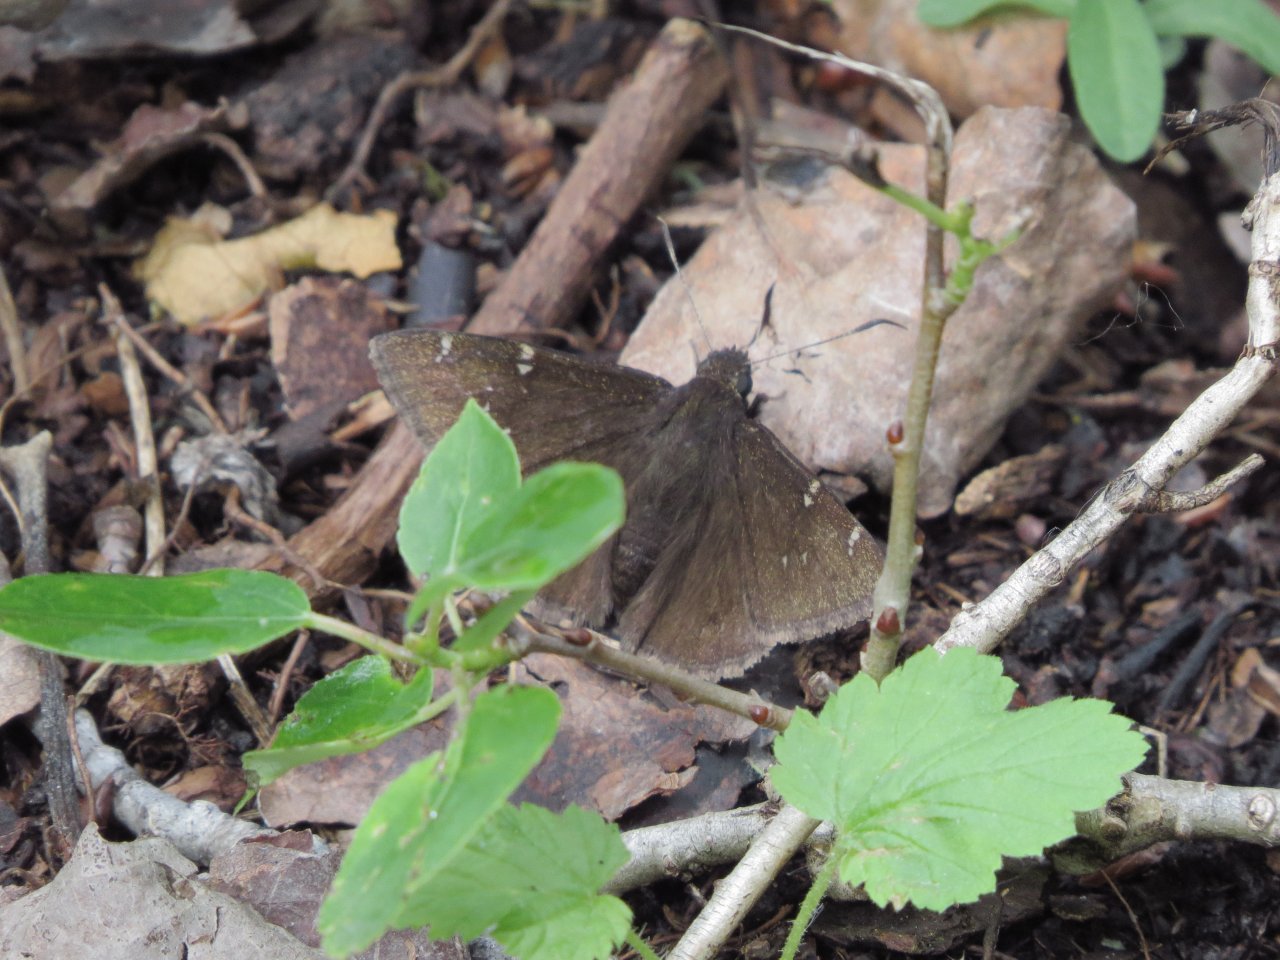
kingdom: Animalia
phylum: Arthropoda
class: Insecta
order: Lepidoptera
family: Hesperiidae
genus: Autochton
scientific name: Autochton
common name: Northern Cloudywing
